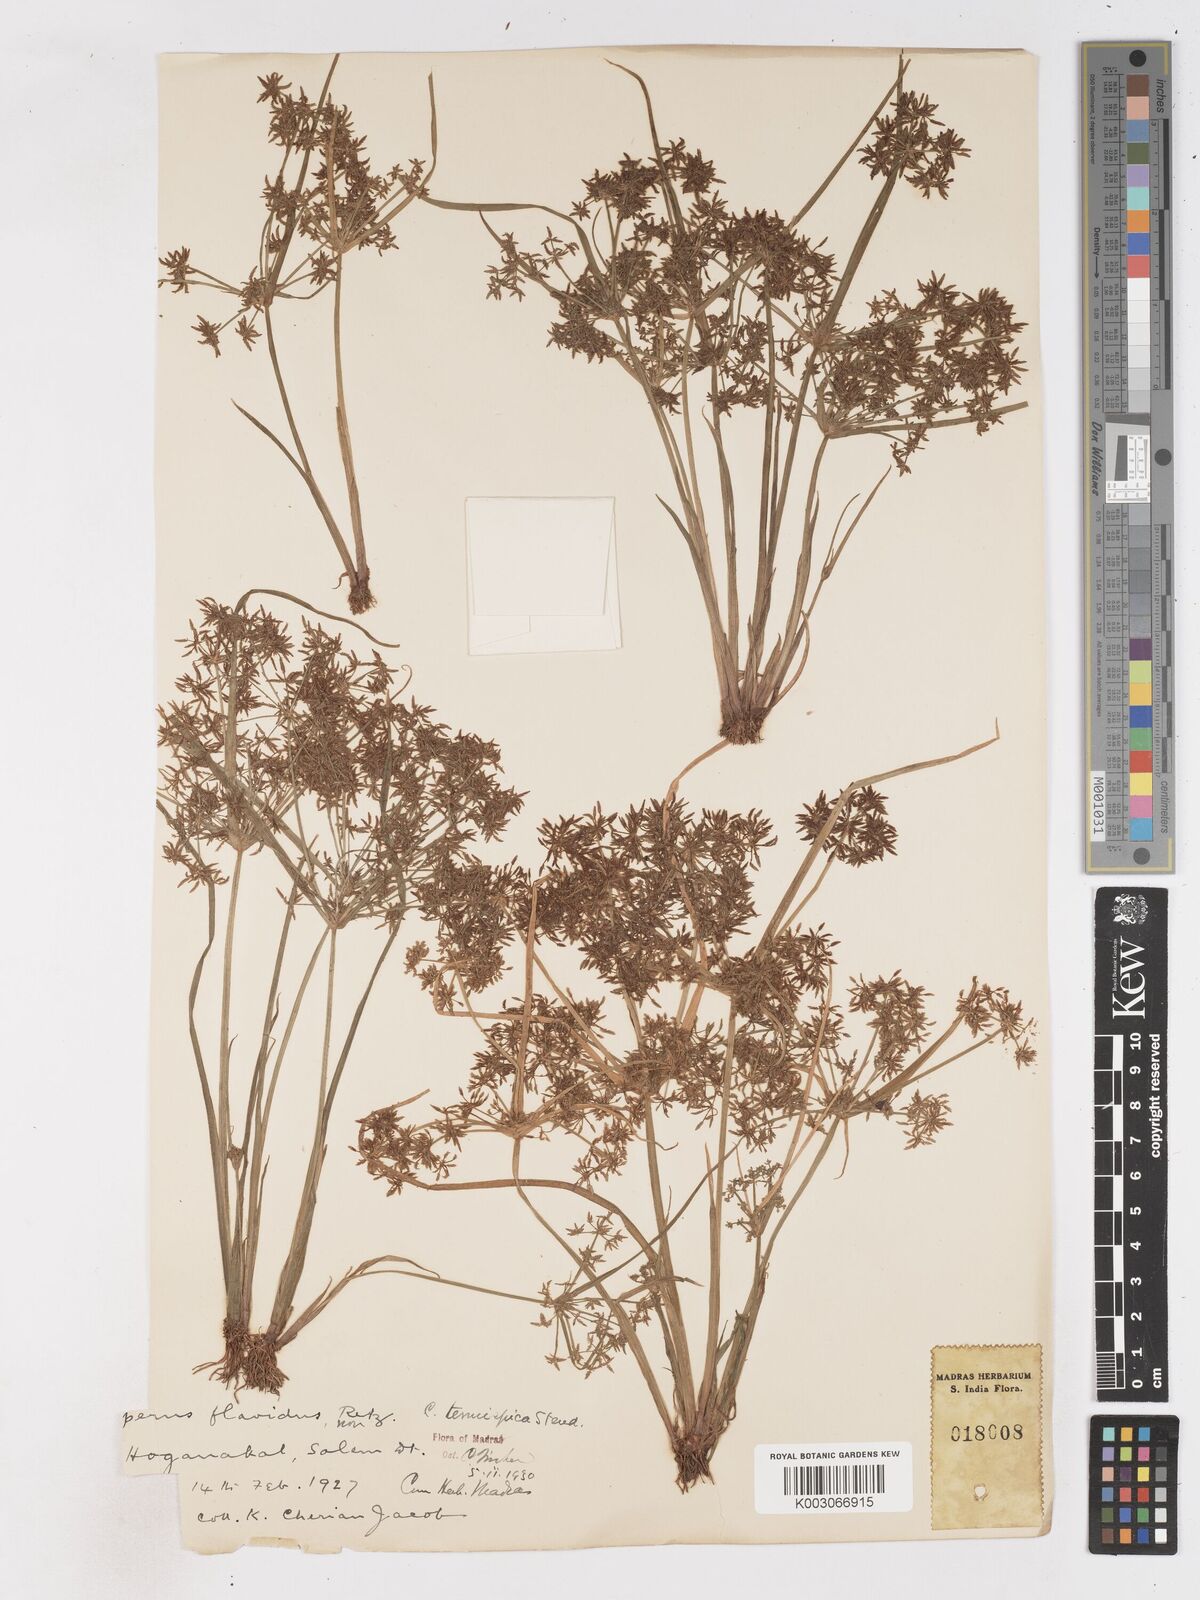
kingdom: Plantae
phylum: Tracheophyta
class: Liliopsida
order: Poales
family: Cyperaceae
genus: Cyperus
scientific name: Cyperus tenuispica
